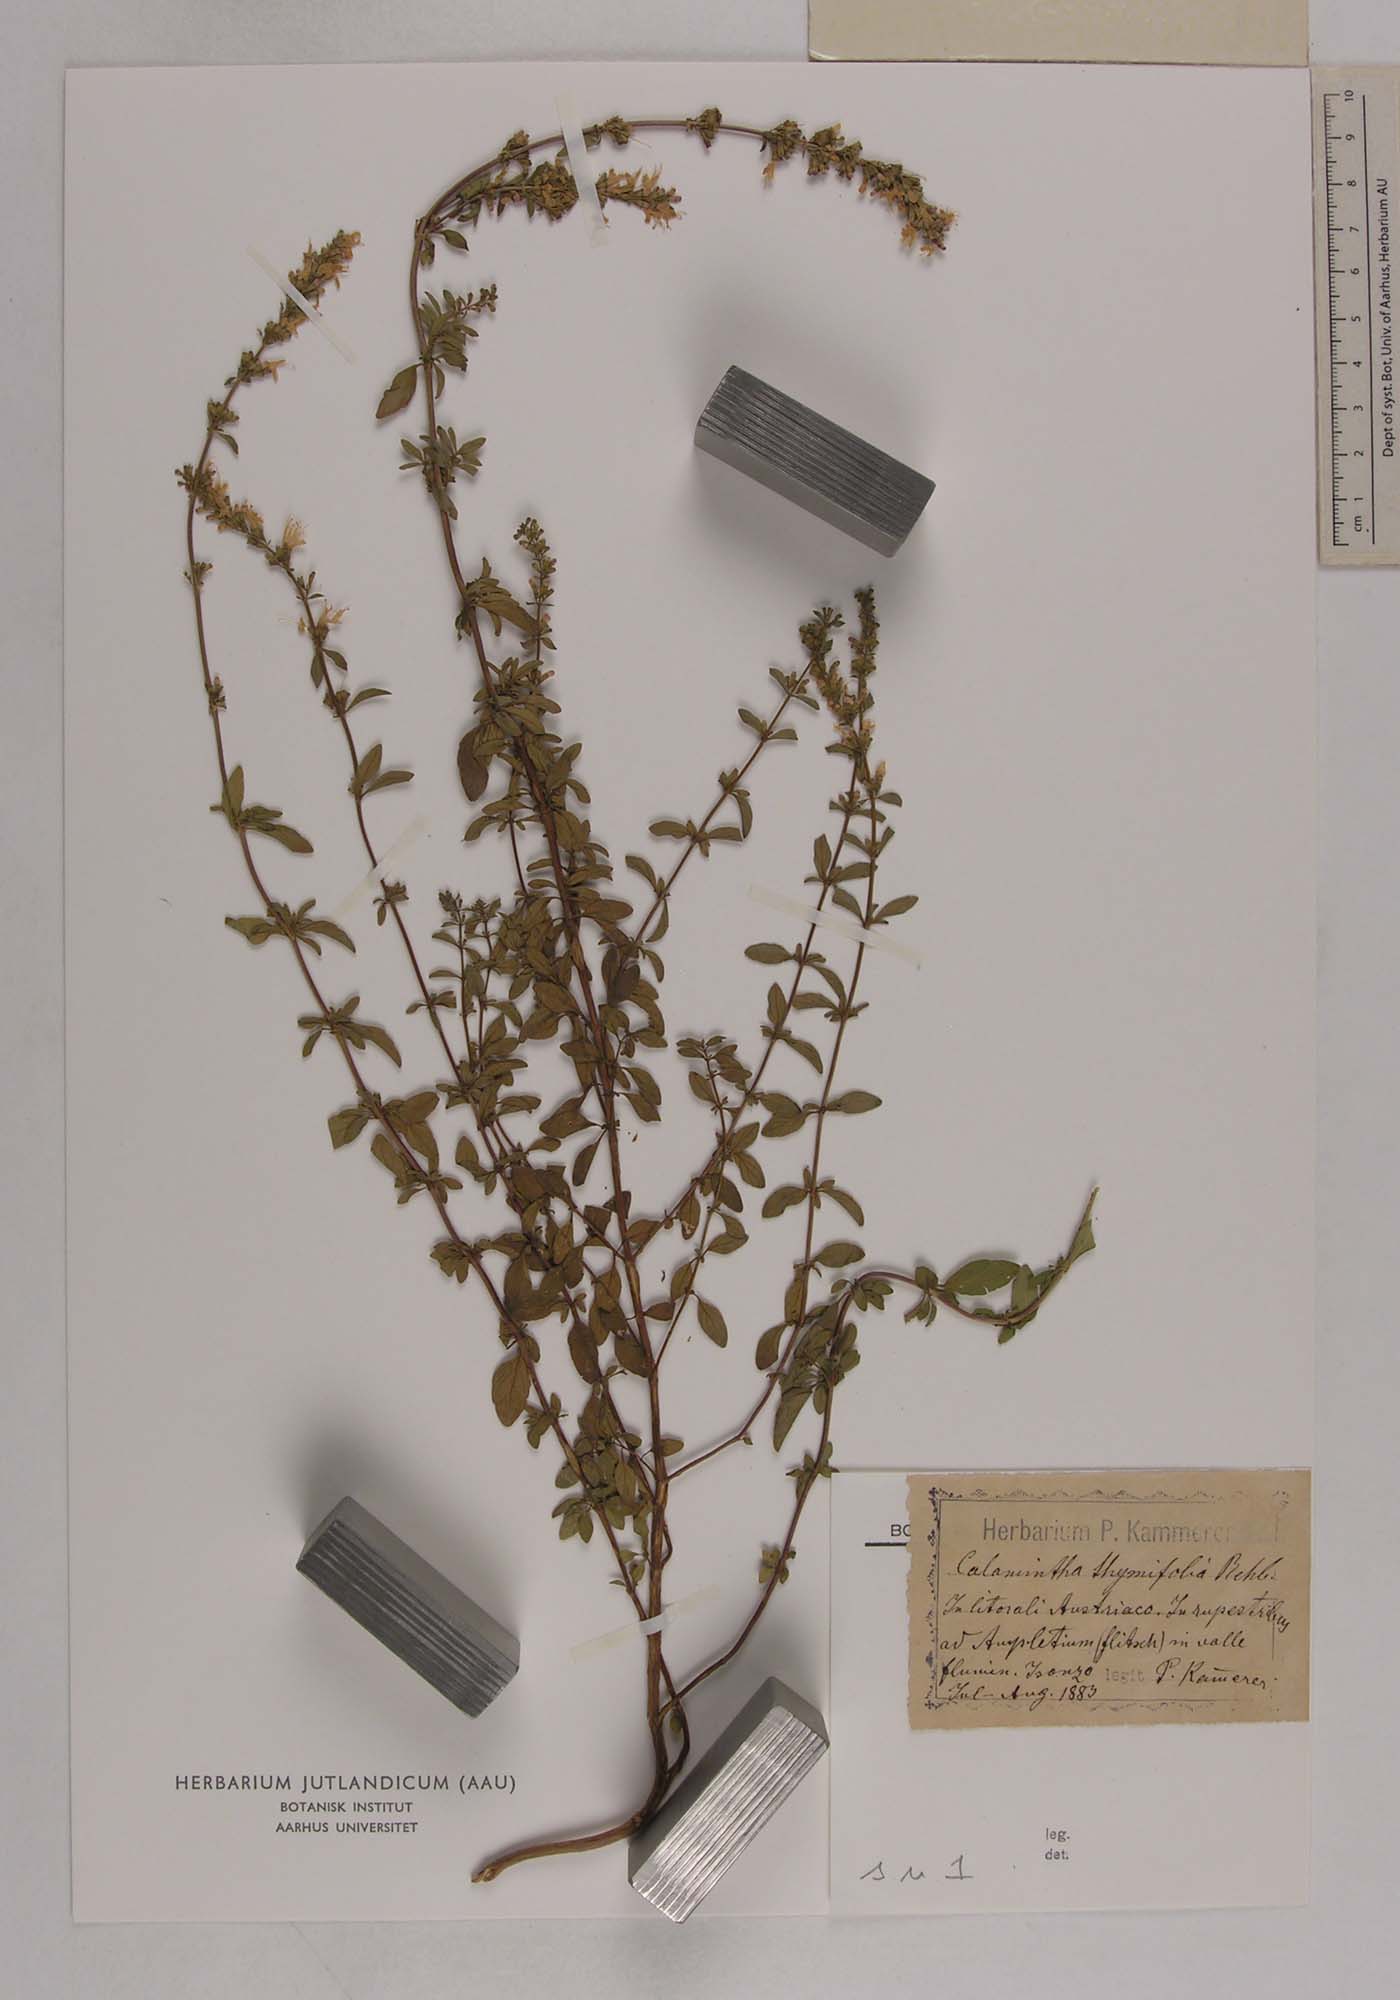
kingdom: Plantae
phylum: Tracheophyta
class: Magnoliopsida
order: Lamiales
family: Lamiaceae
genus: Clinopodium
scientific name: Clinopodium album
